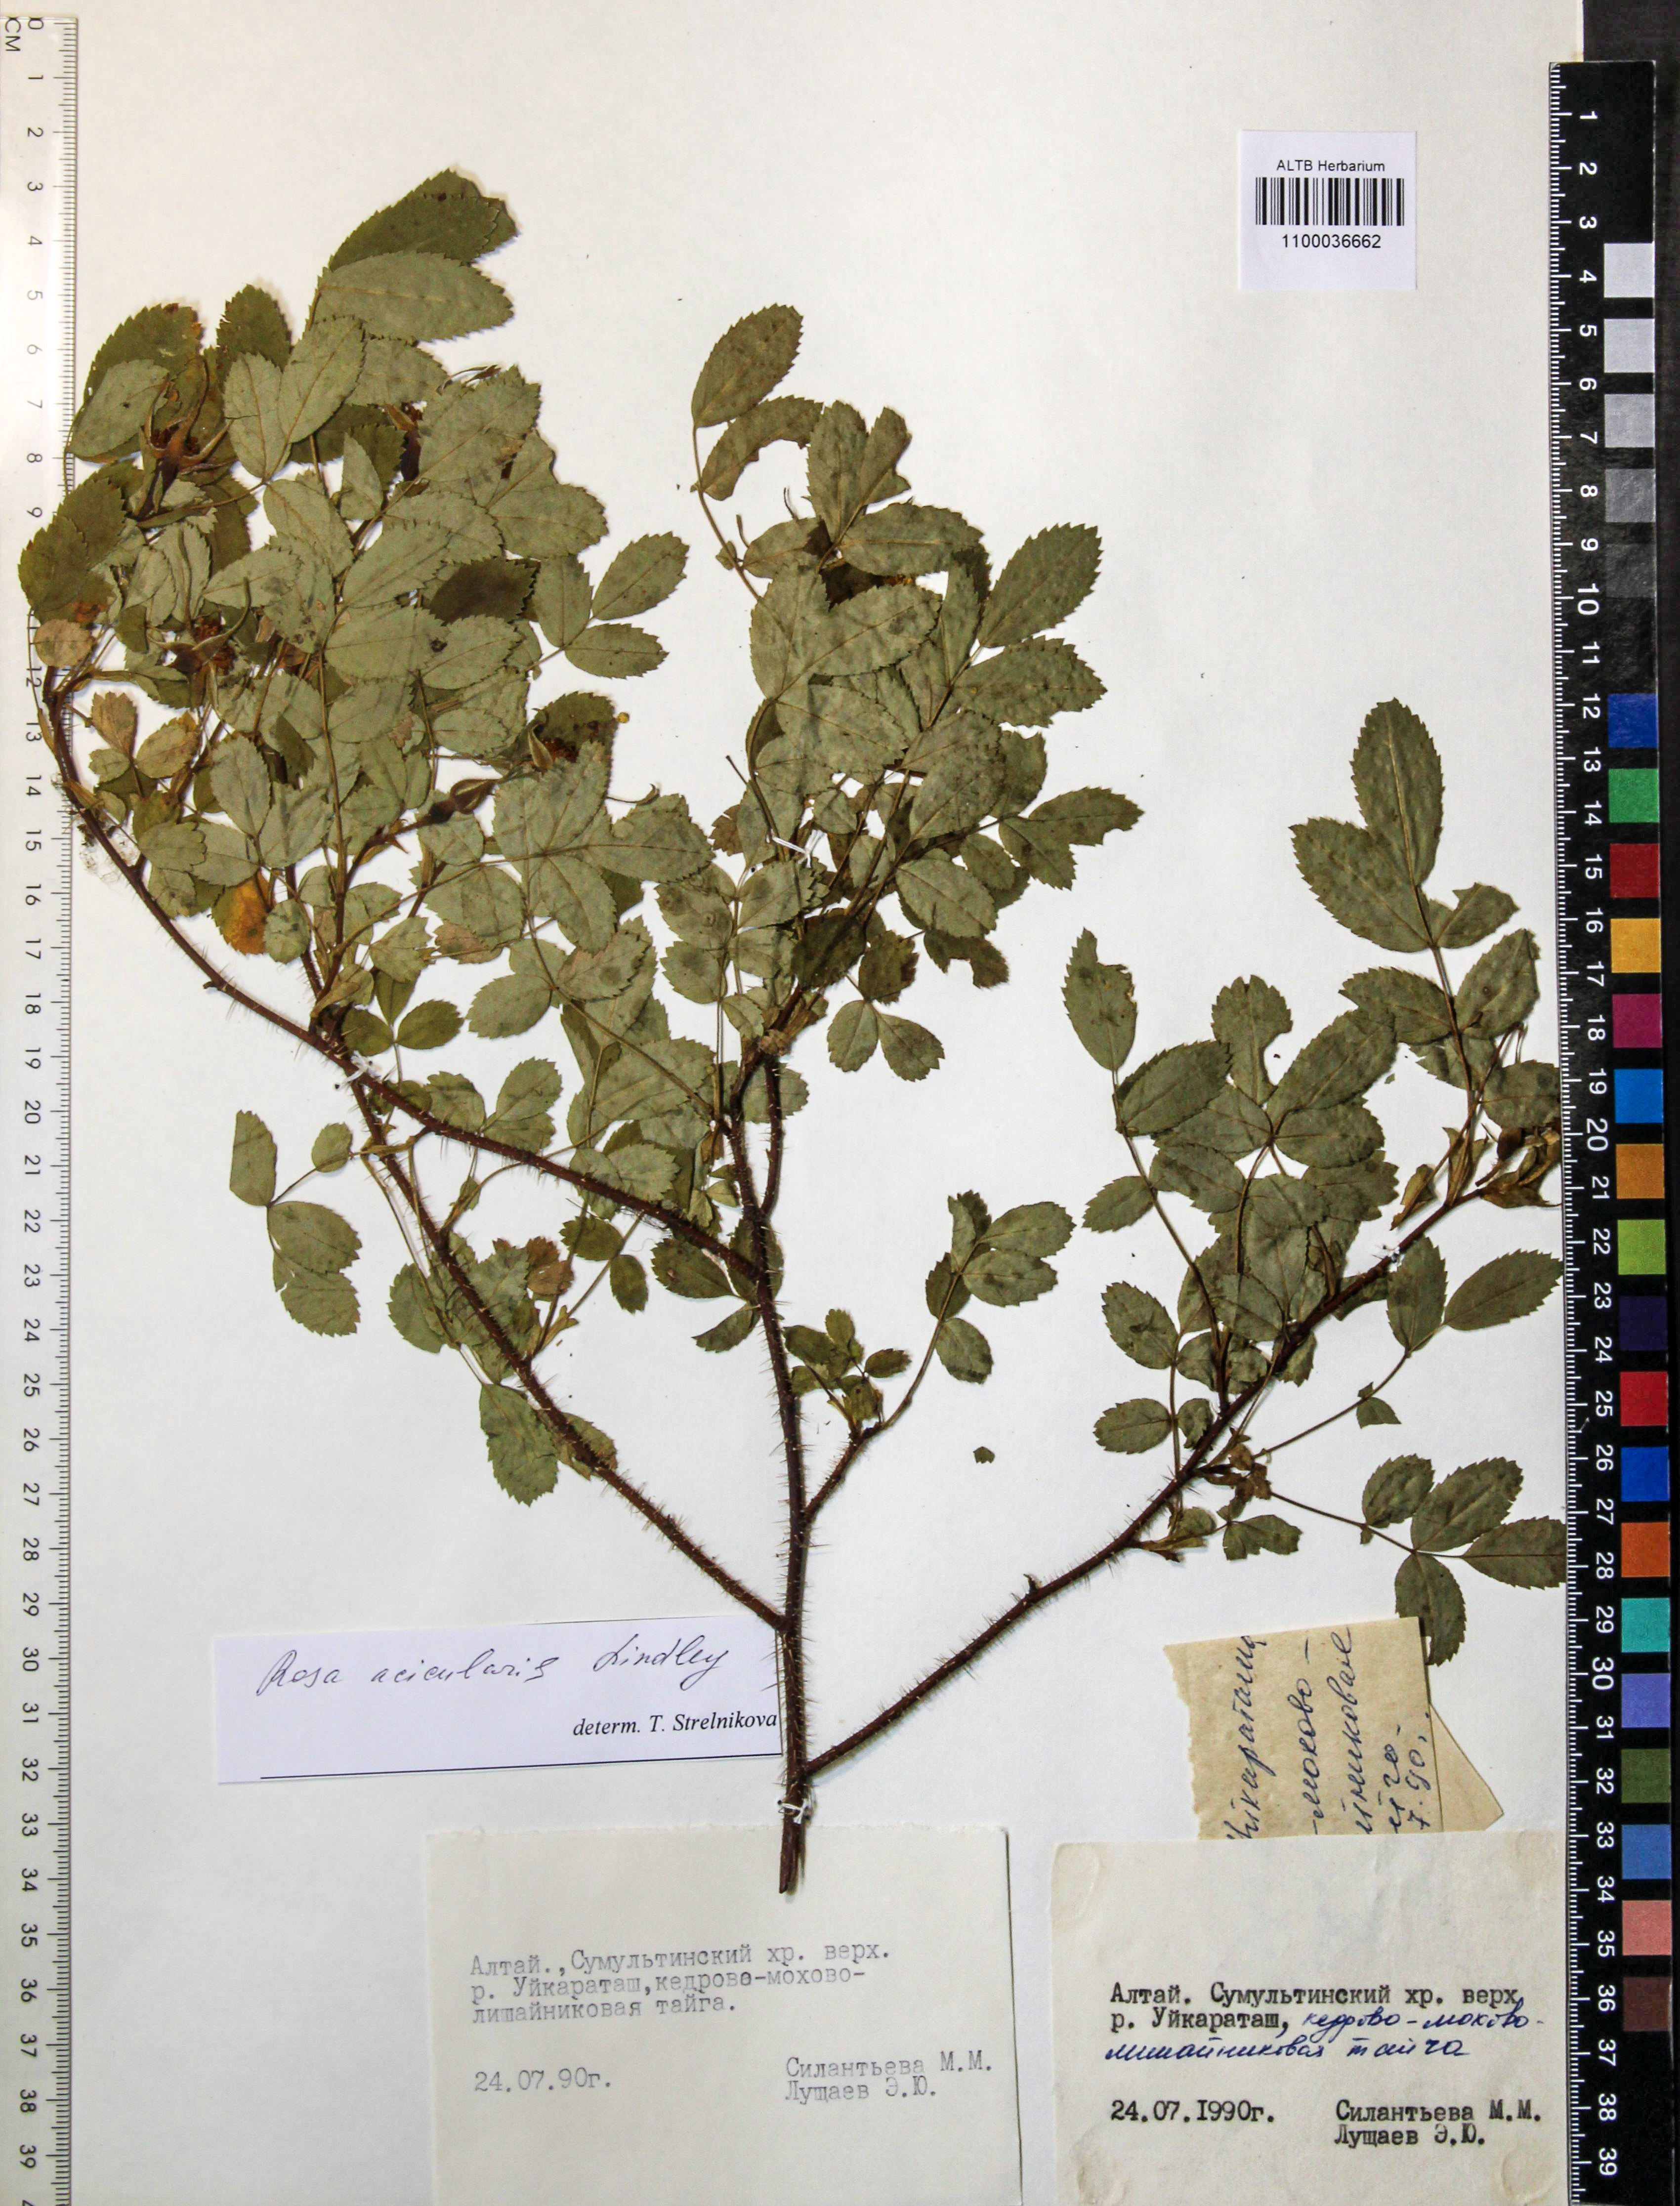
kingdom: Plantae
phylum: Tracheophyta
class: Magnoliopsida
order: Rosales
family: Rosaceae
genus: Rosa
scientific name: Rosa acicularis
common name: Prickly rose
